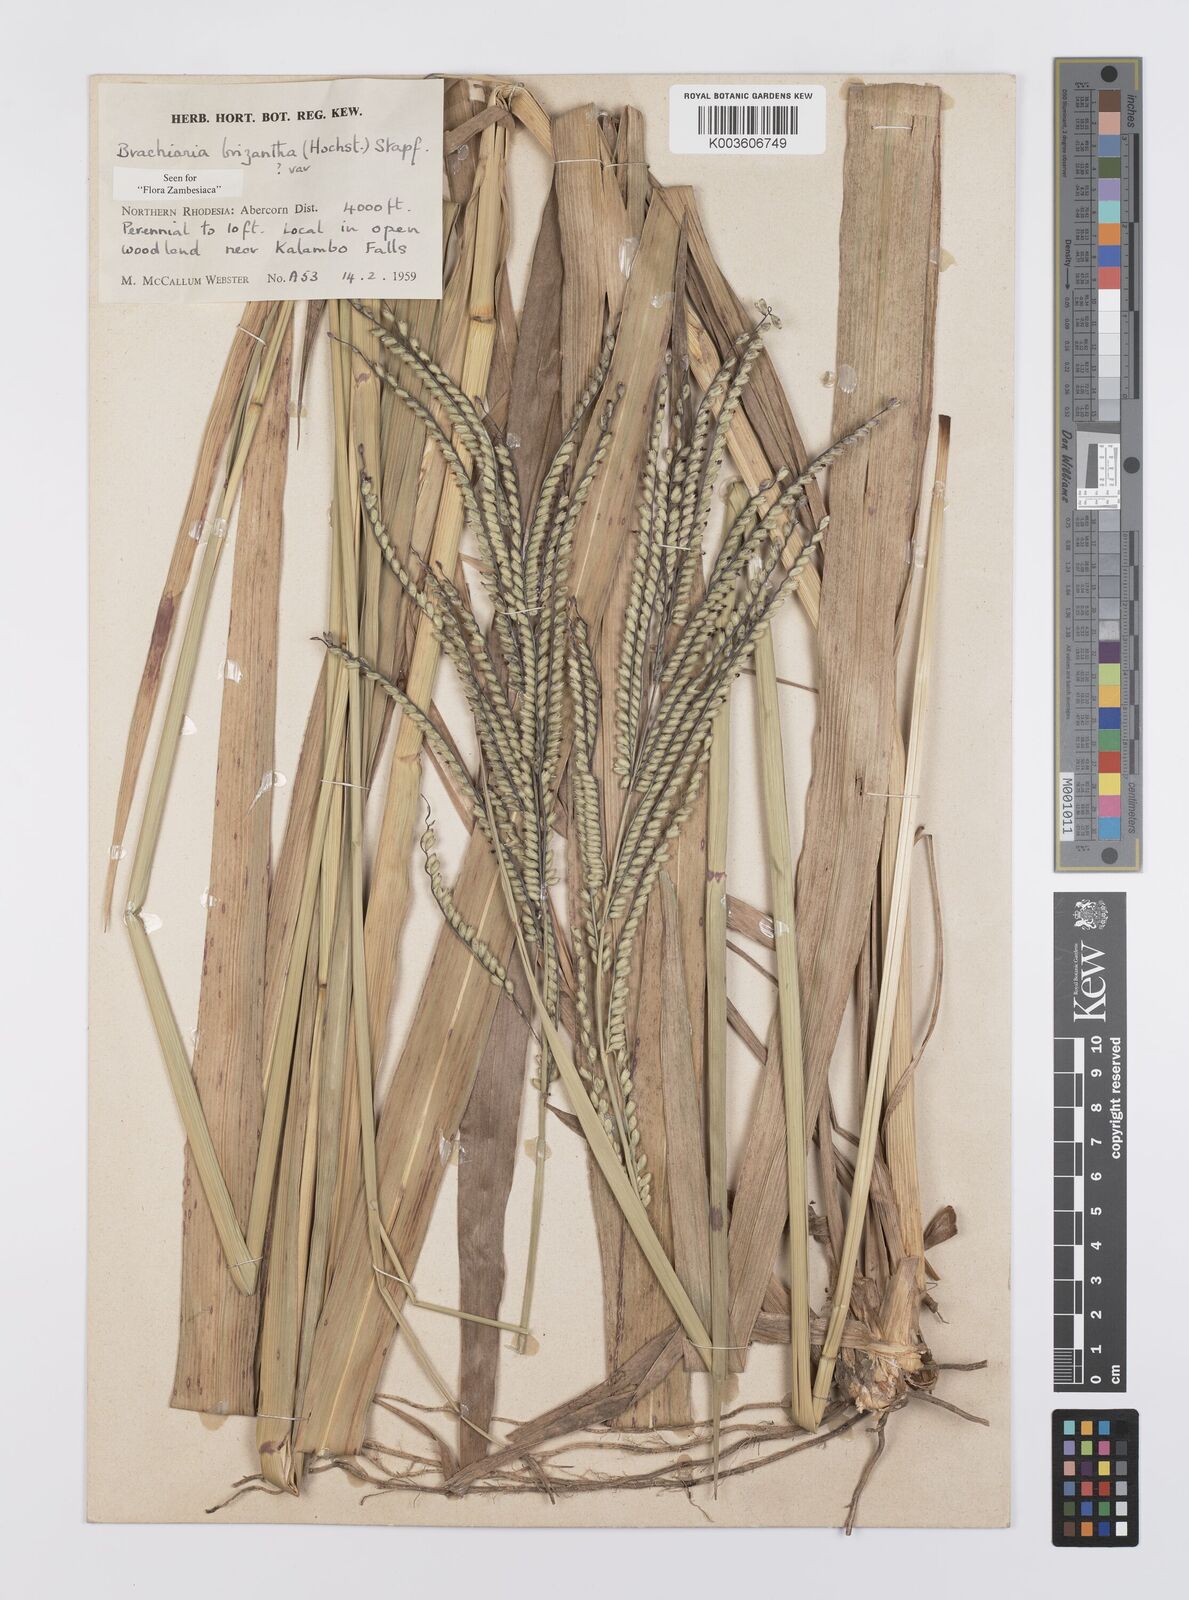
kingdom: Plantae
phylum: Tracheophyta
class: Liliopsida
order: Poales
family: Poaceae
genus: Urochloa
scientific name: Urochloa brizantha
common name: Palisade signalgrass
